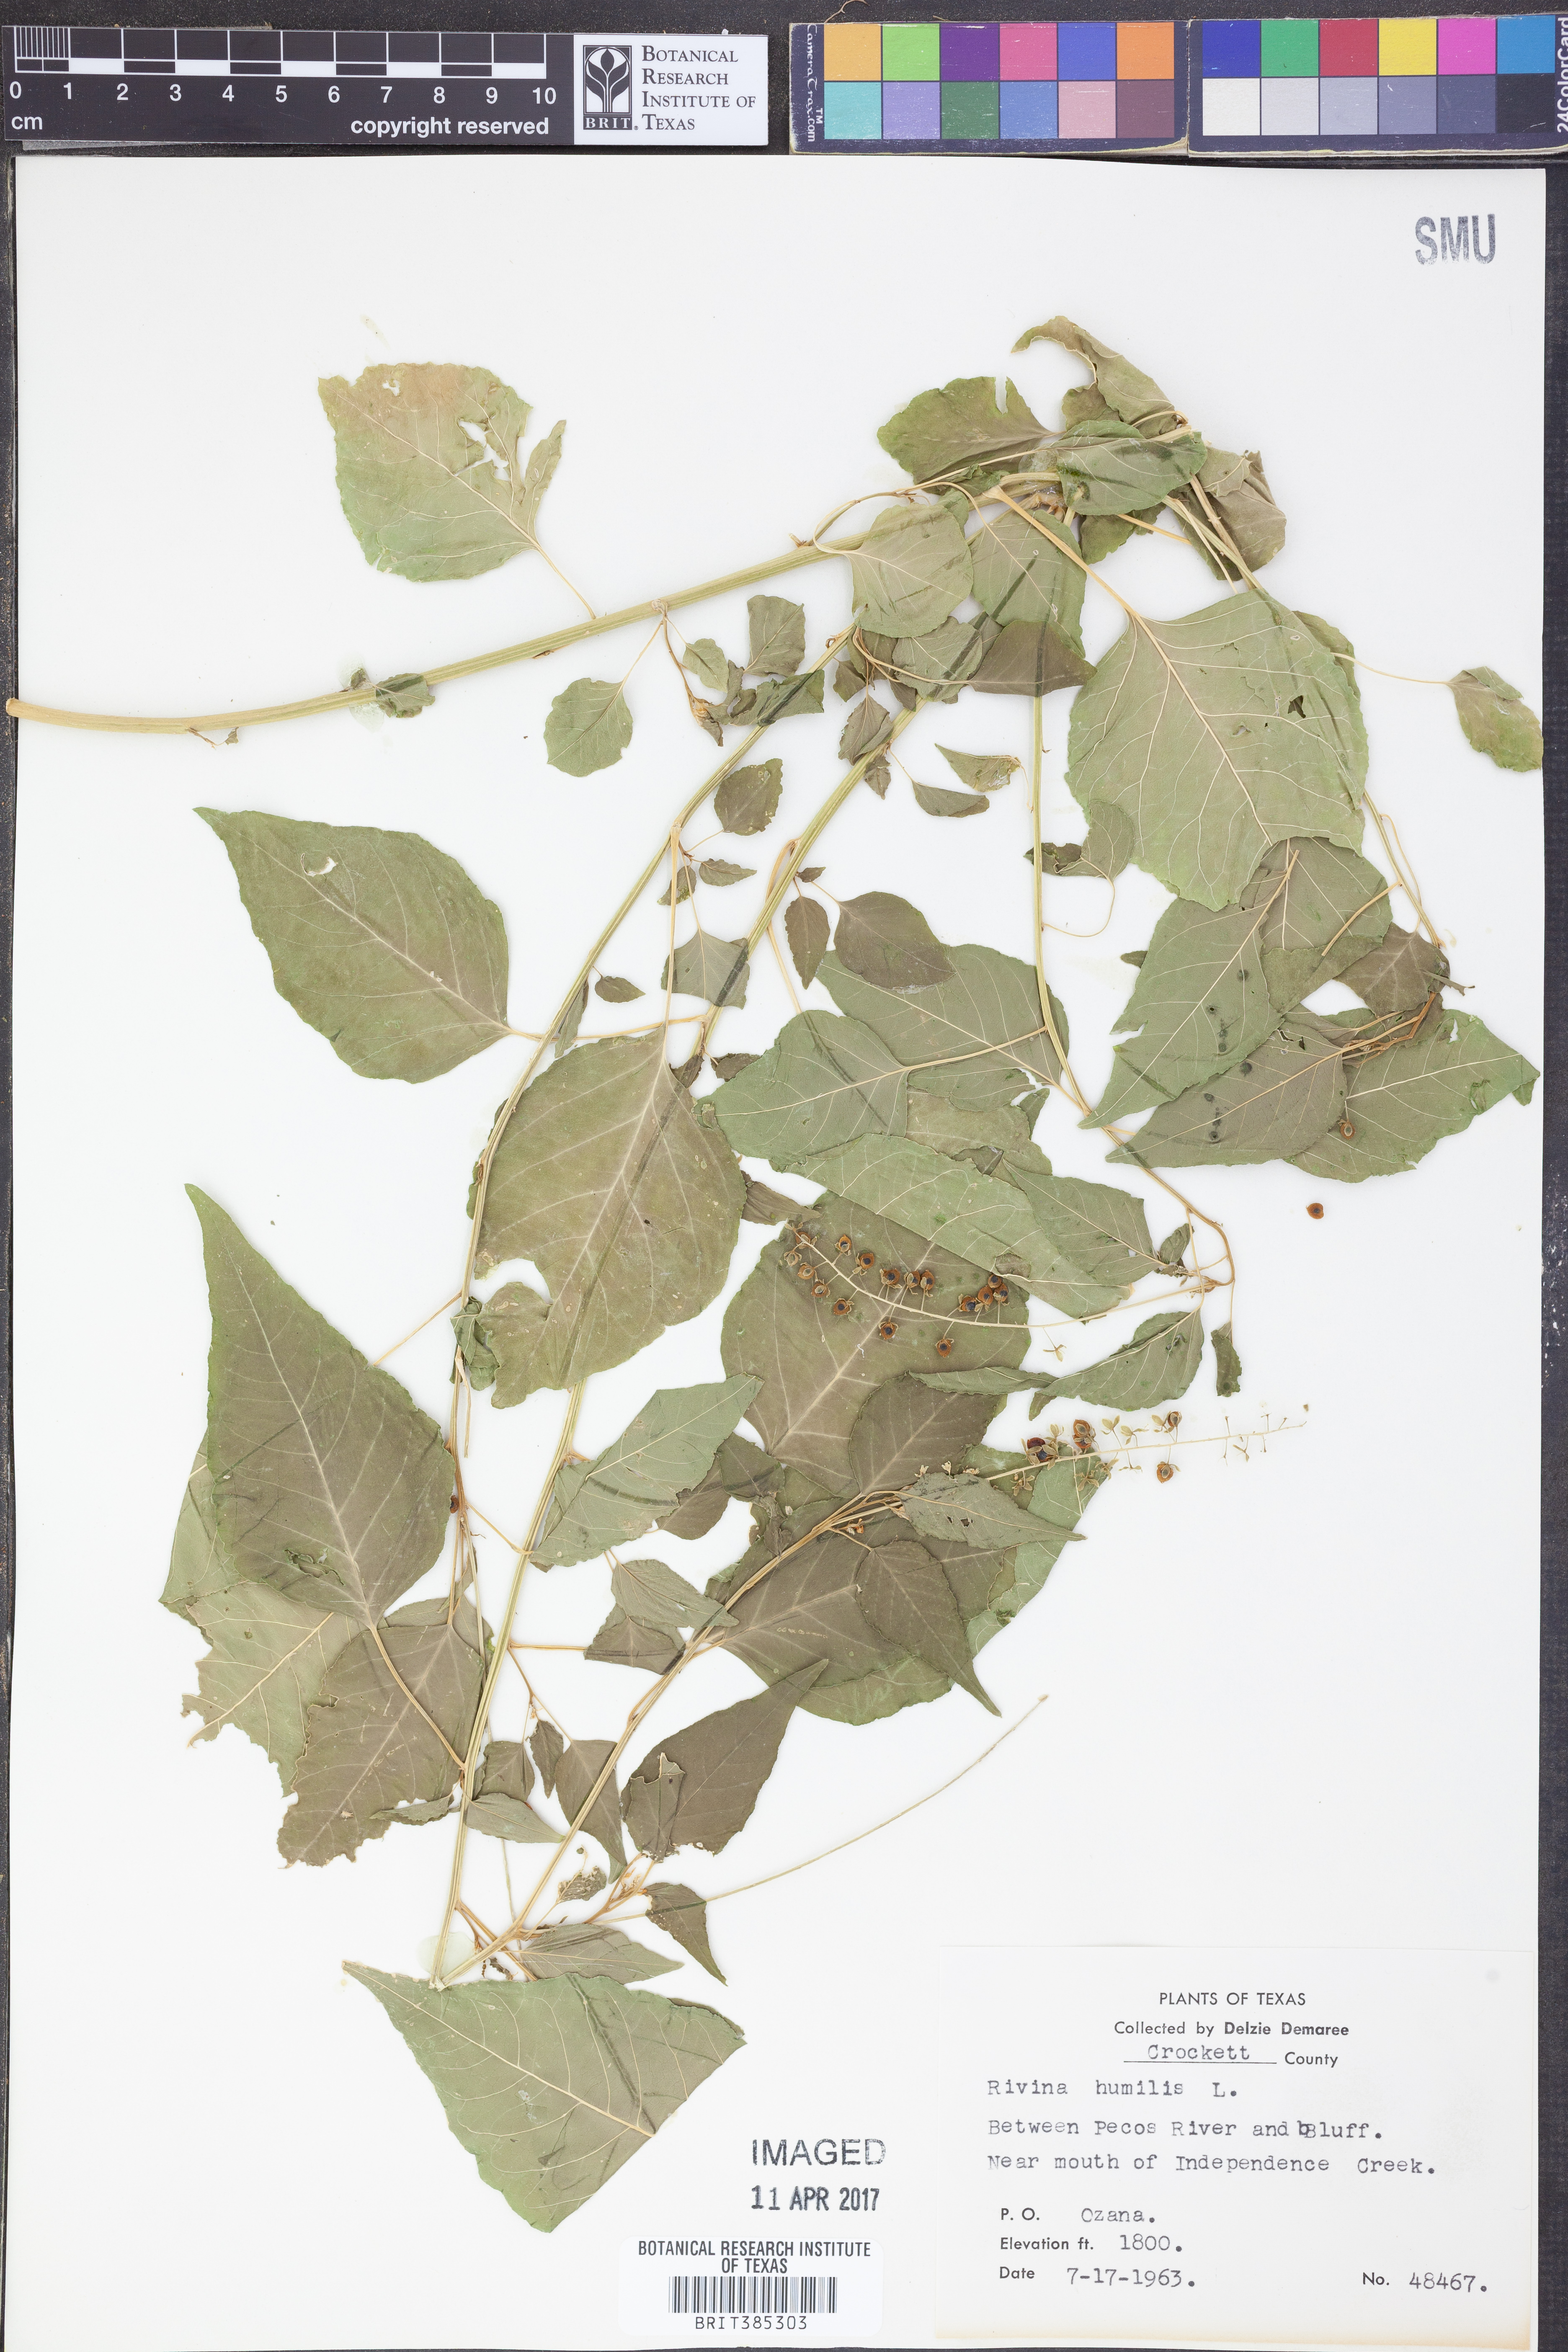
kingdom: Plantae
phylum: Tracheophyta
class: Magnoliopsida
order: Caryophyllales
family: Phytolaccaceae
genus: Rivina
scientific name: Rivina humilis
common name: Rougeplant
